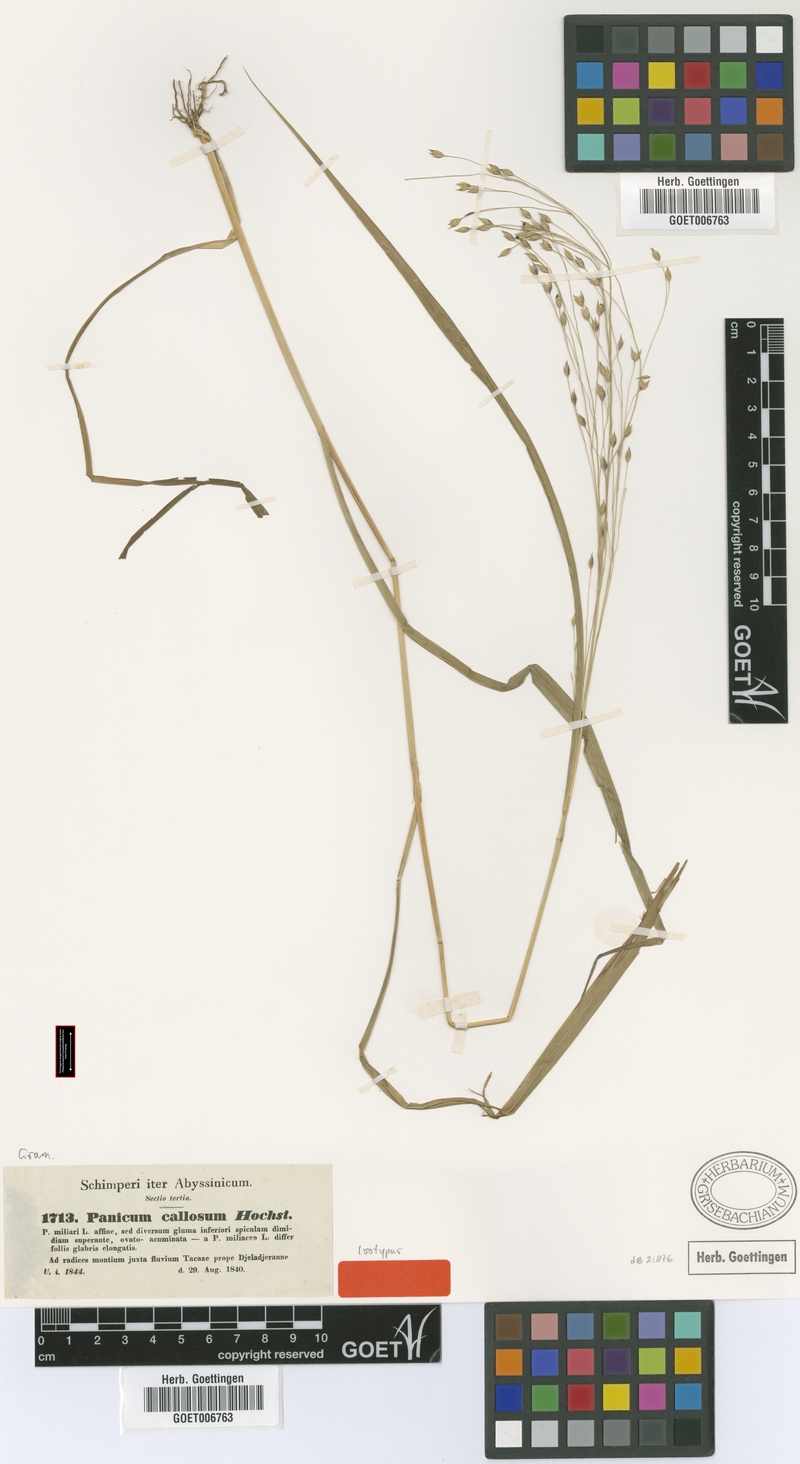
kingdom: Plantae
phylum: Tracheophyta
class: Liliopsida
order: Poales
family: Poaceae
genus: Panicum
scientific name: Panicum callosum
